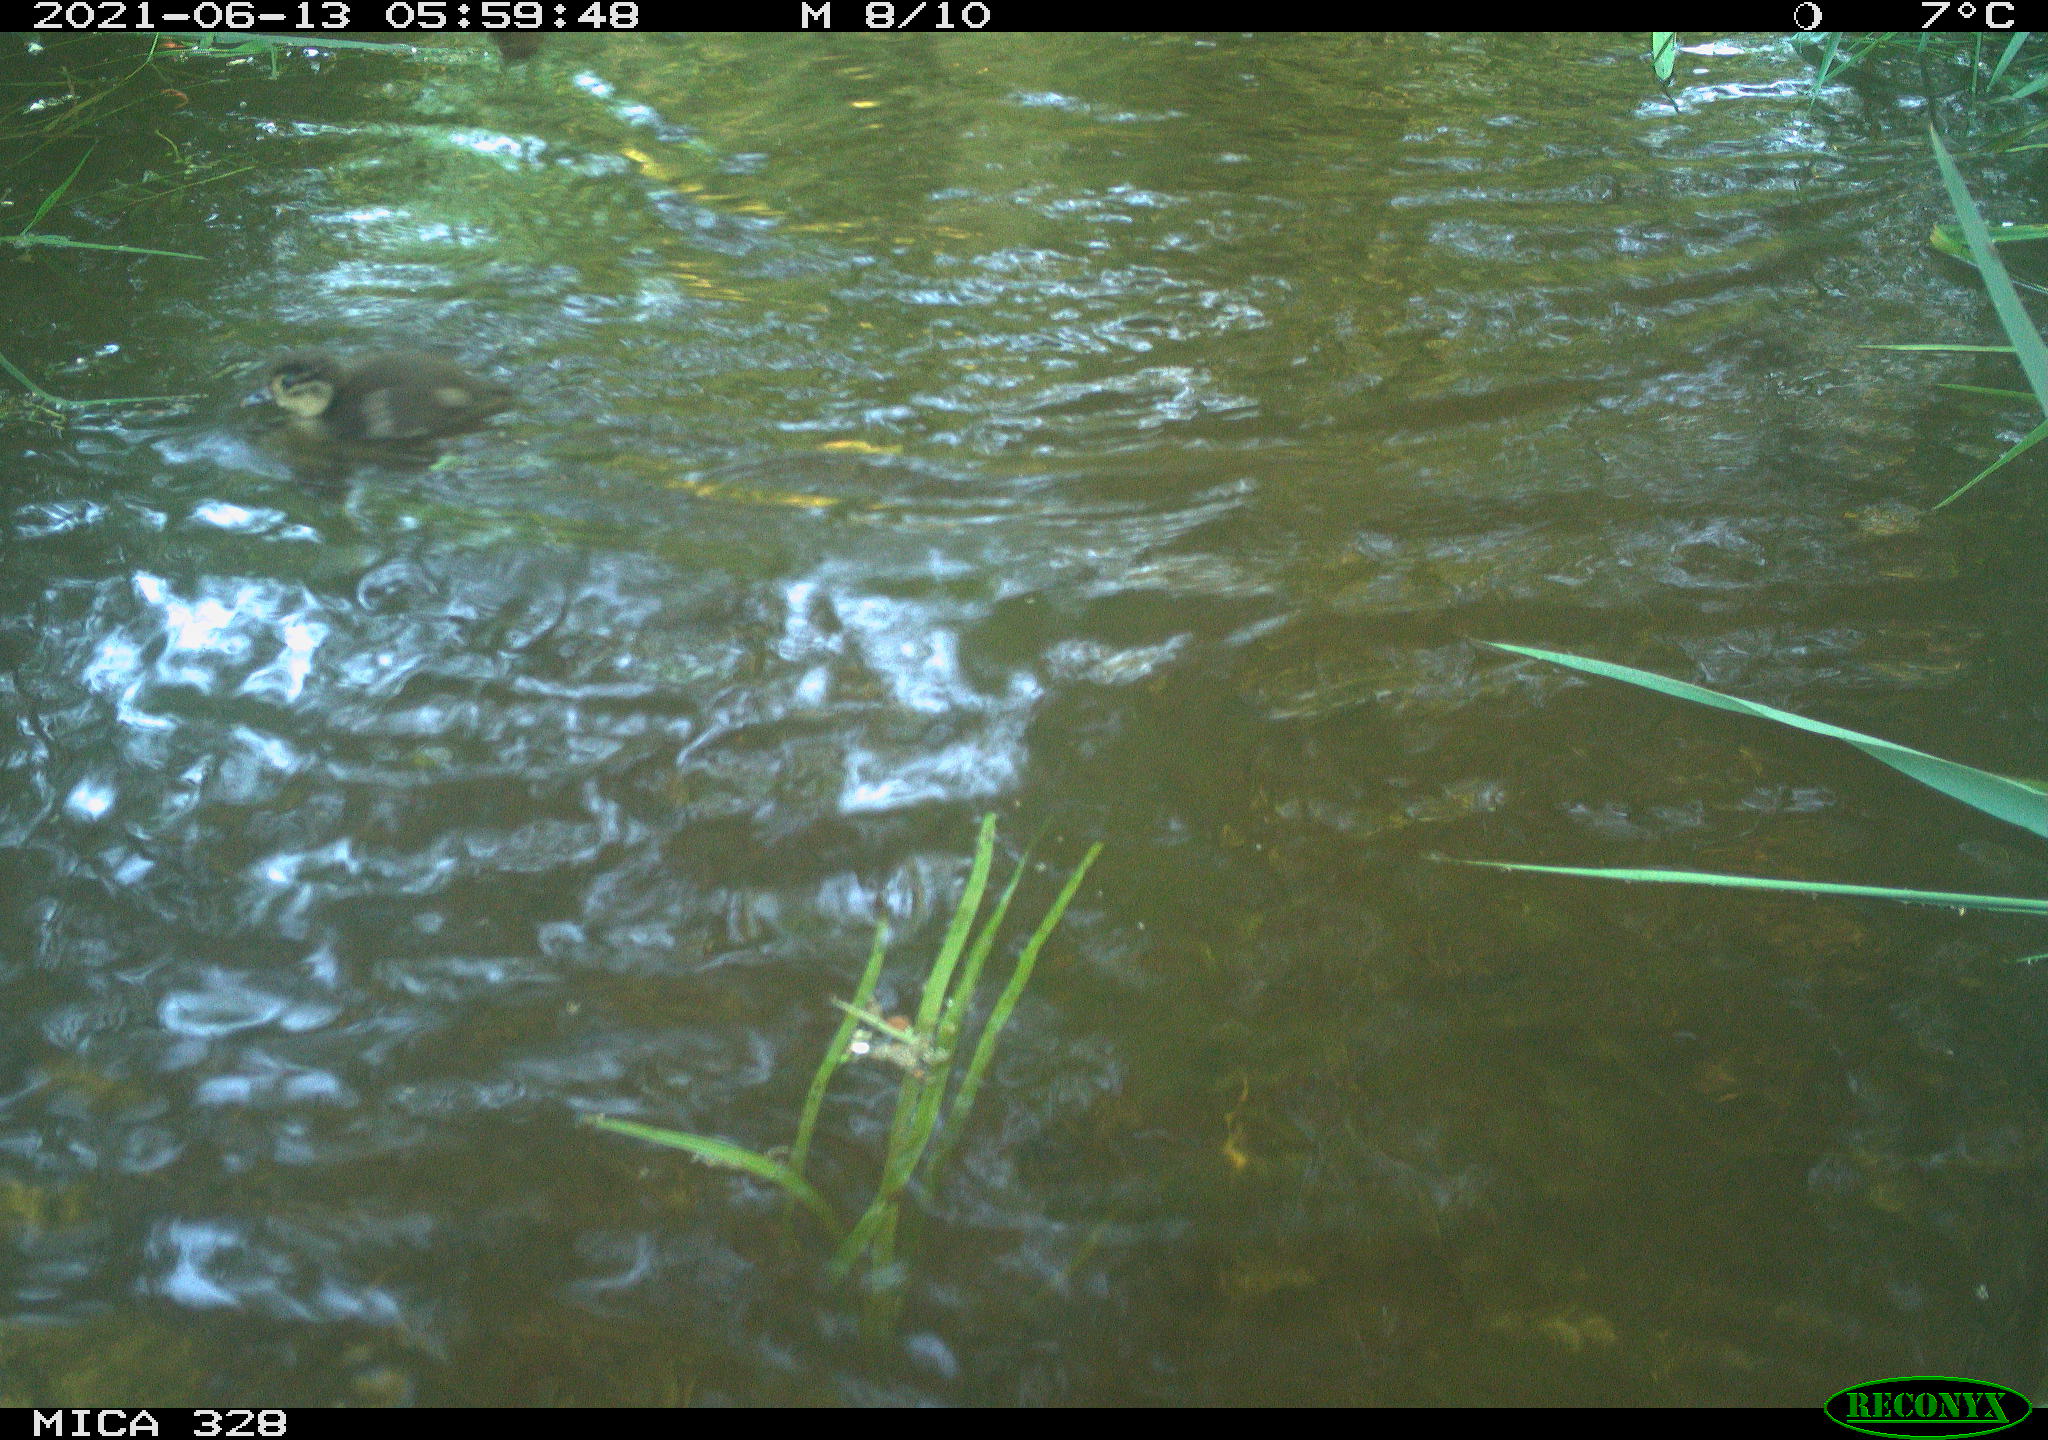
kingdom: Animalia
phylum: Chordata
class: Aves
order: Anseriformes
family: Anatidae
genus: Aix
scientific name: Aix galericulata
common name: Mandarin duck
